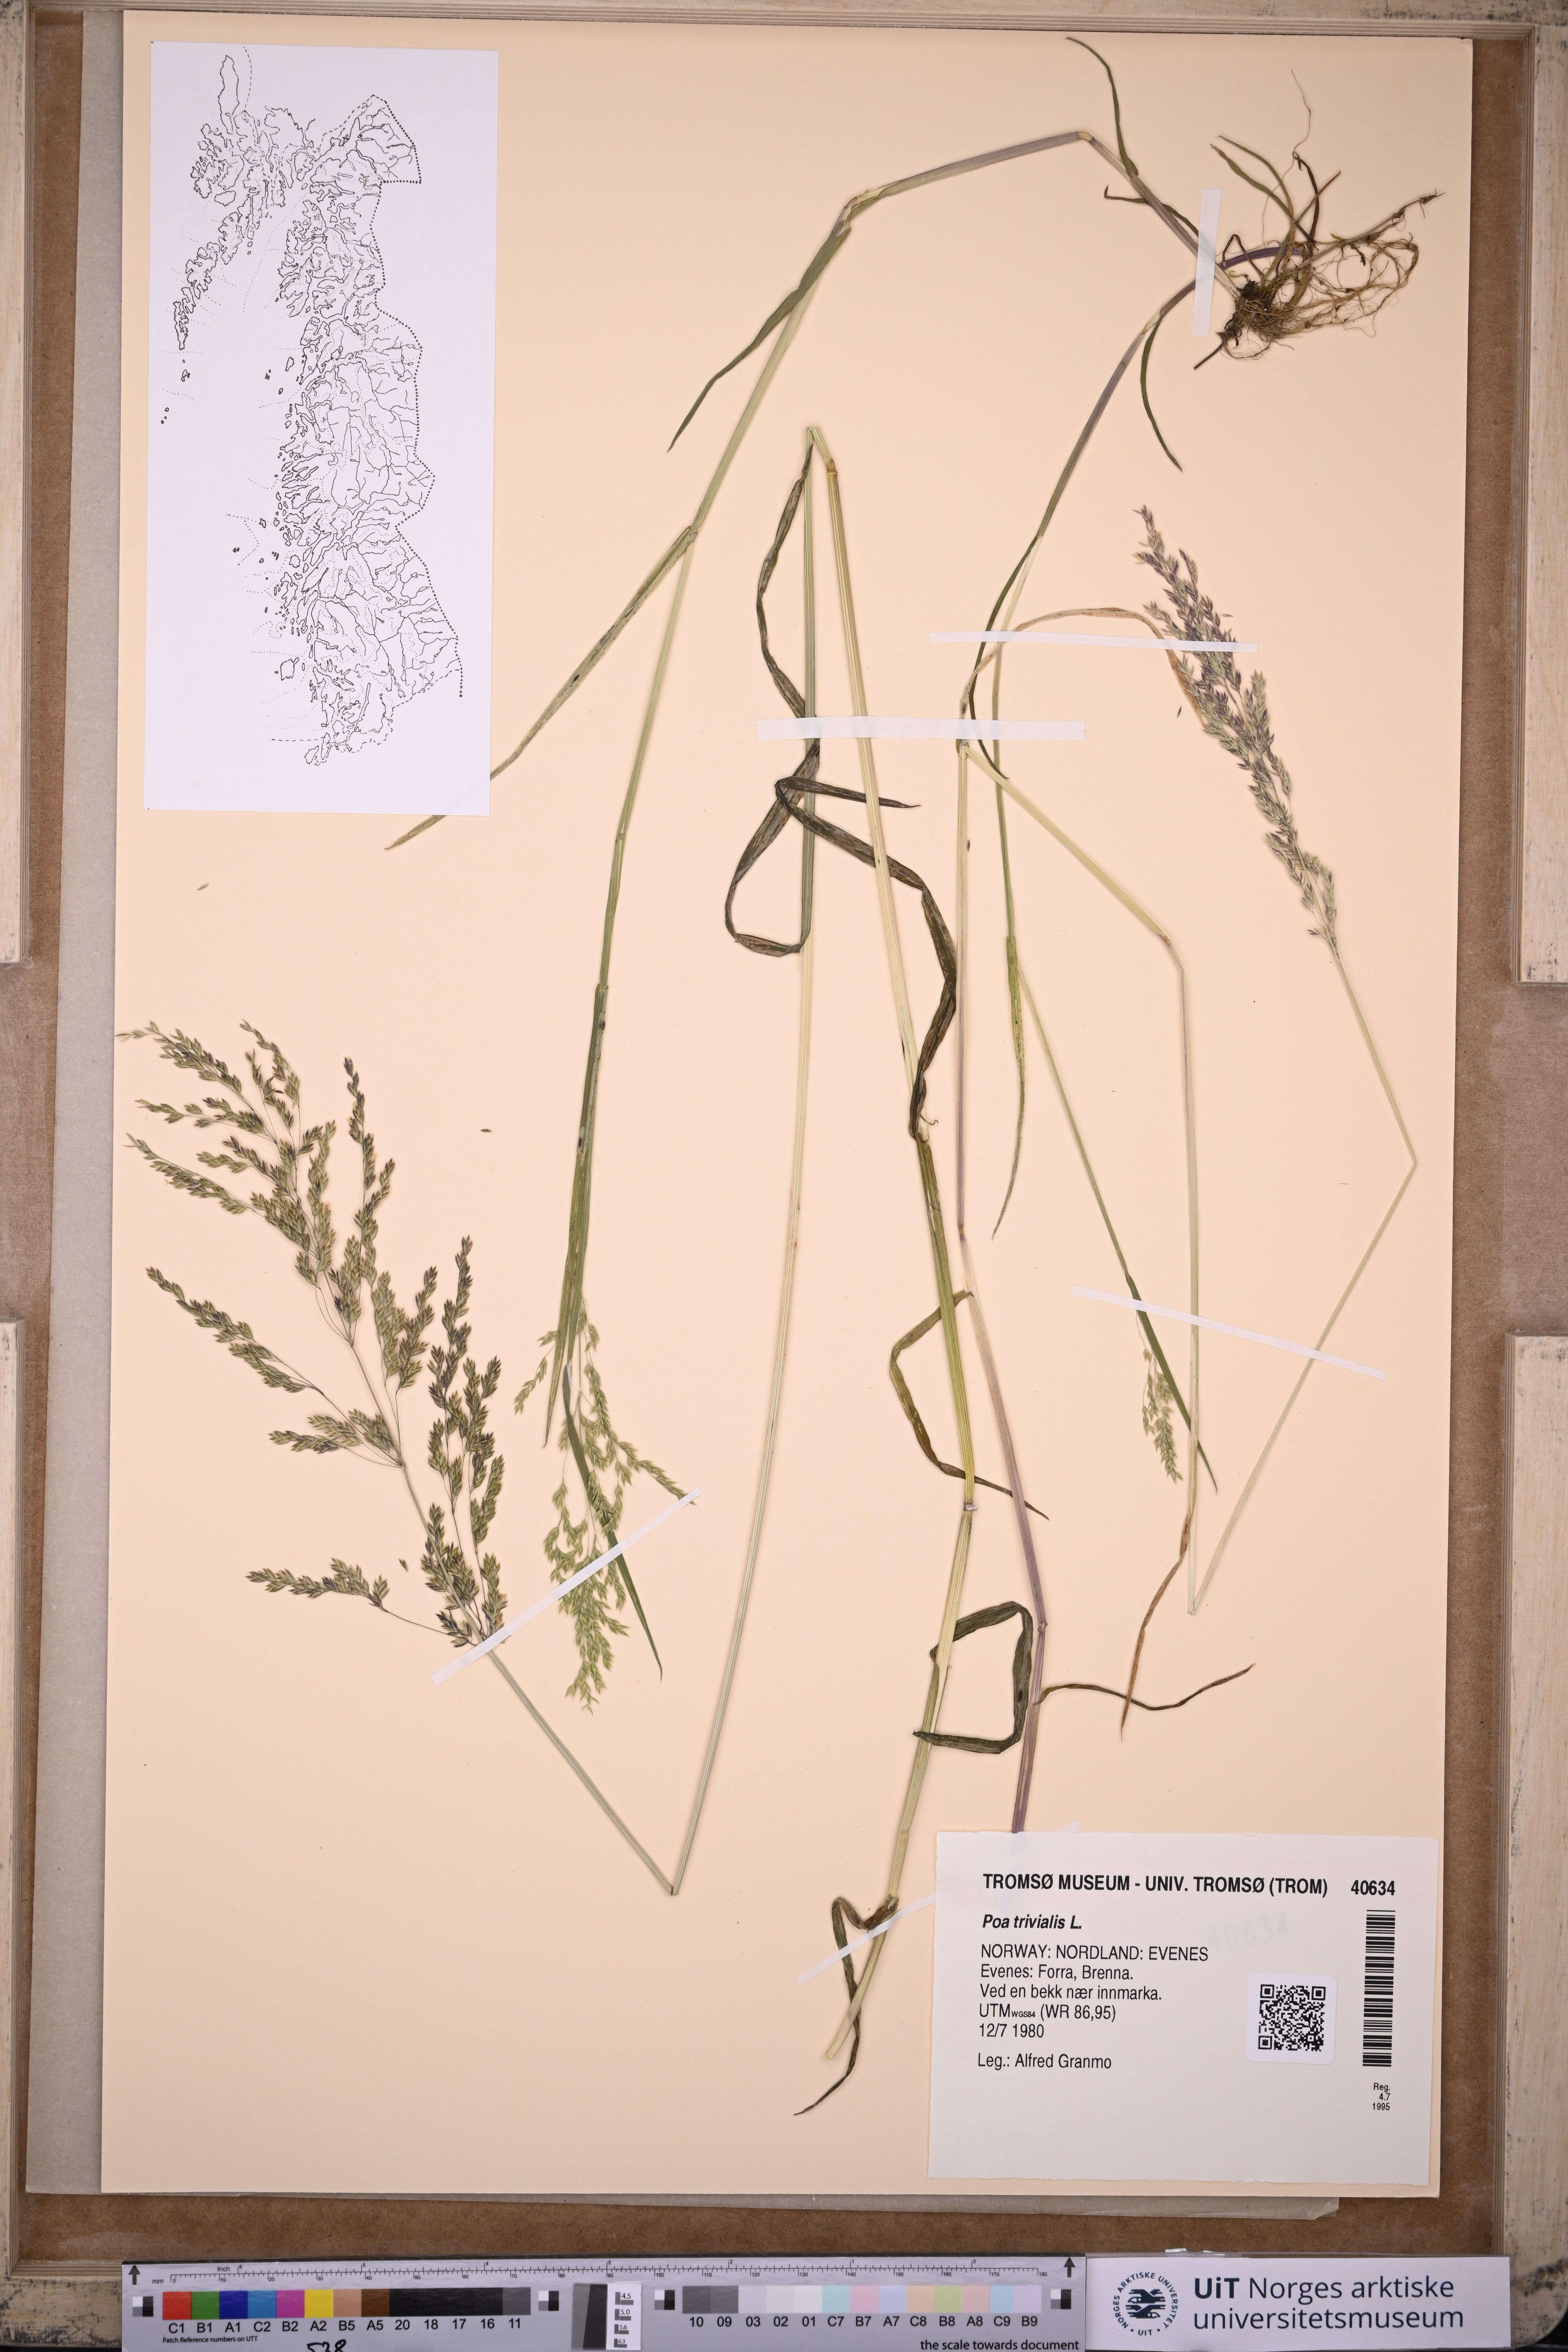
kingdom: Plantae
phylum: Tracheophyta
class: Liliopsida
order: Poales
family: Poaceae
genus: Poa
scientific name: Poa trivialis
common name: Rough bluegrass
